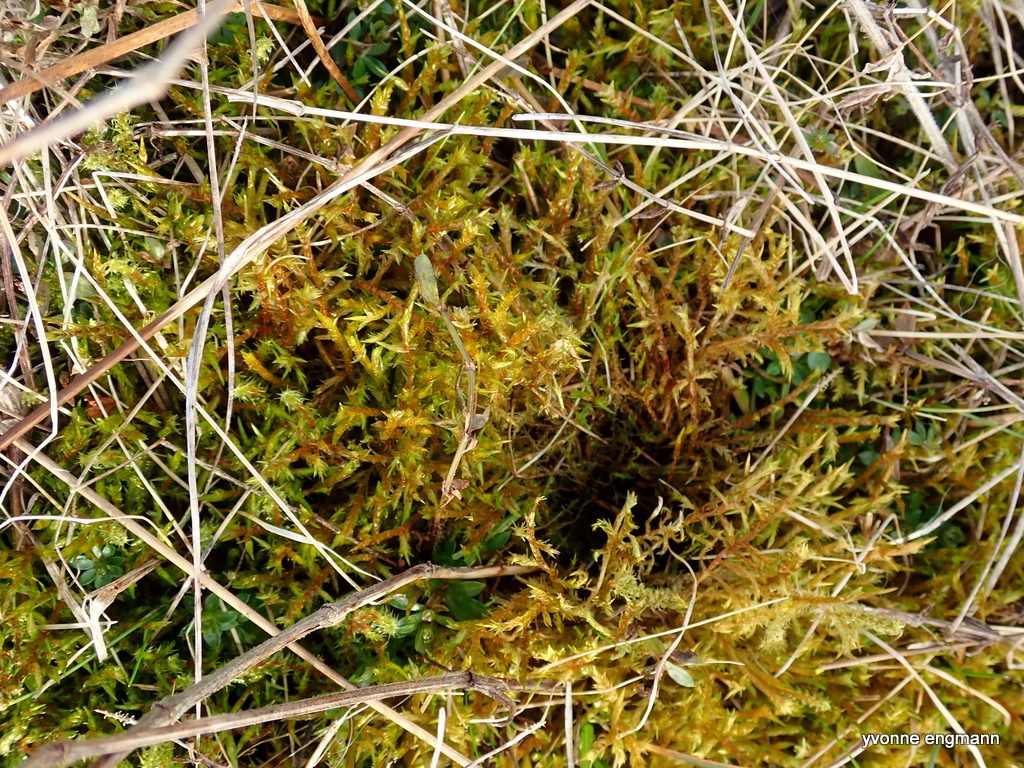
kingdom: Plantae
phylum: Bryophyta
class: Bryopsida
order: Hypnales
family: Pylaisiaceae
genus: Calliergonella
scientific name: Calliergonella cuspidata
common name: Spids spydmos
